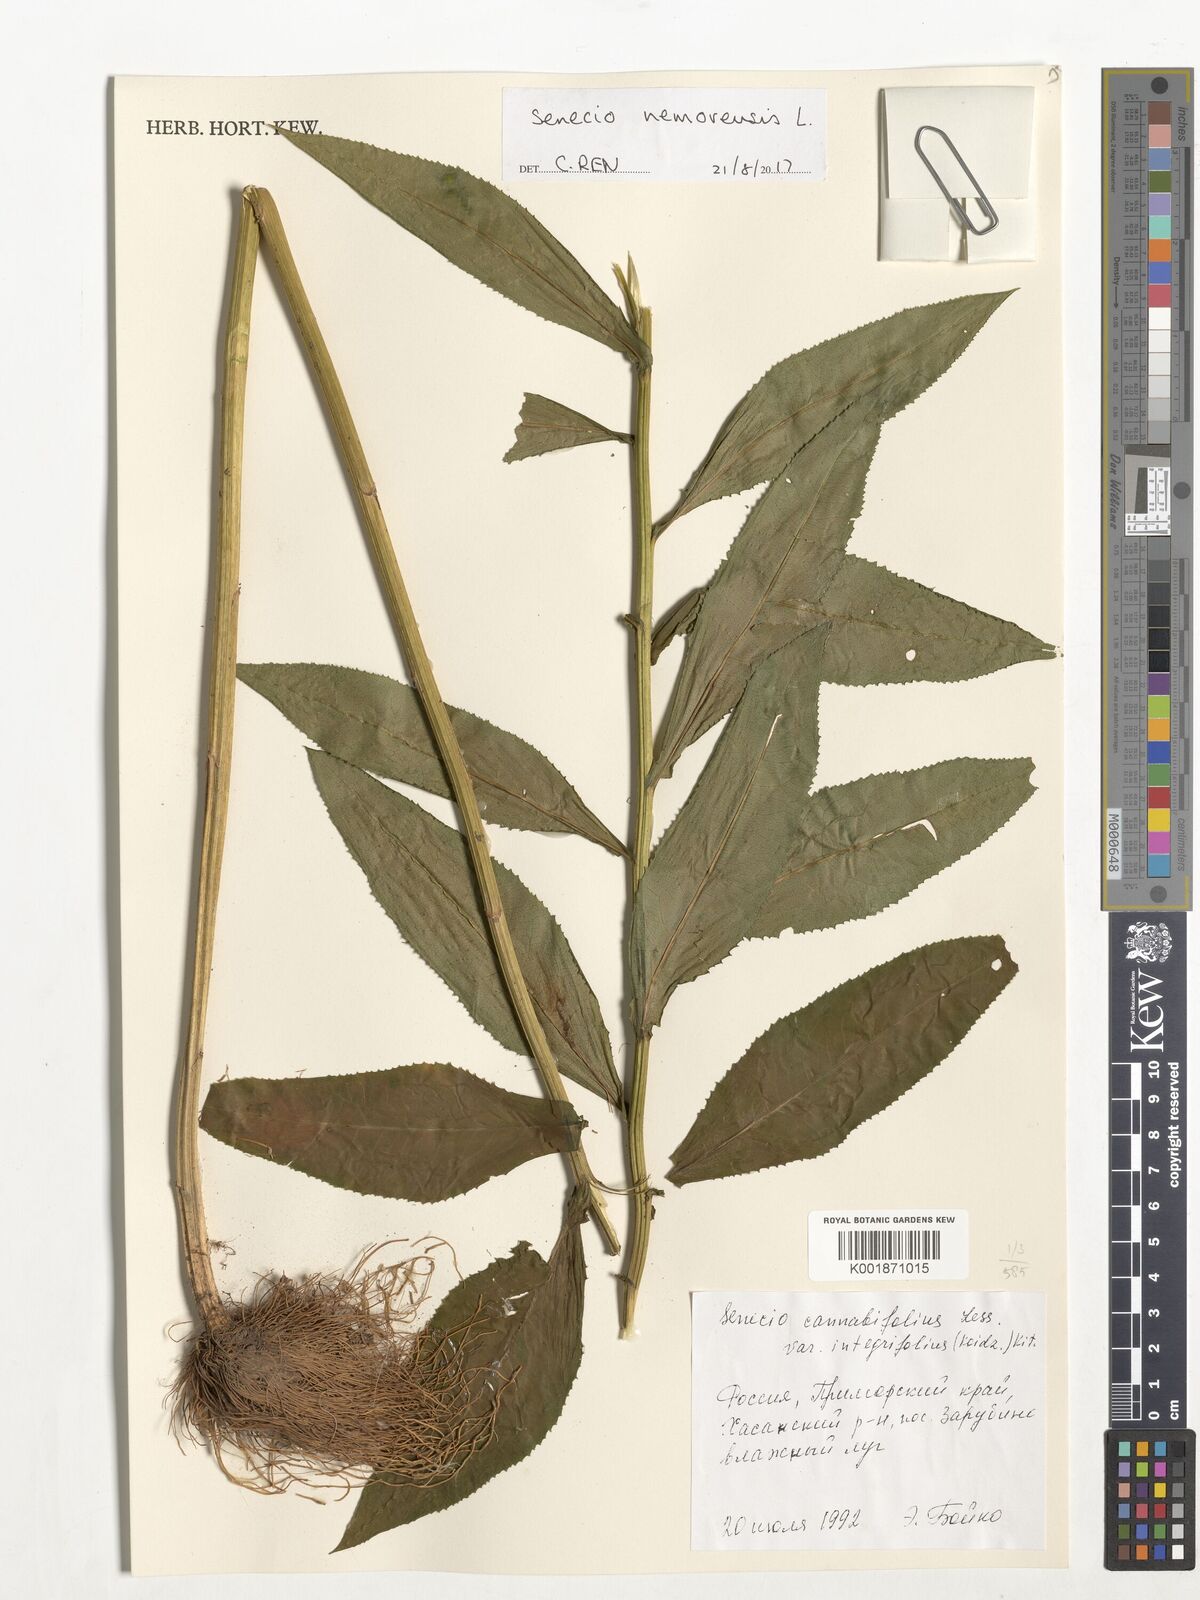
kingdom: Plantae
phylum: Tracheophyta
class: Magnoliopsida
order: Asterales
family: Asteraceae
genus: Senecio
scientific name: Senecio nemorensis
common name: Alpine ragwort
